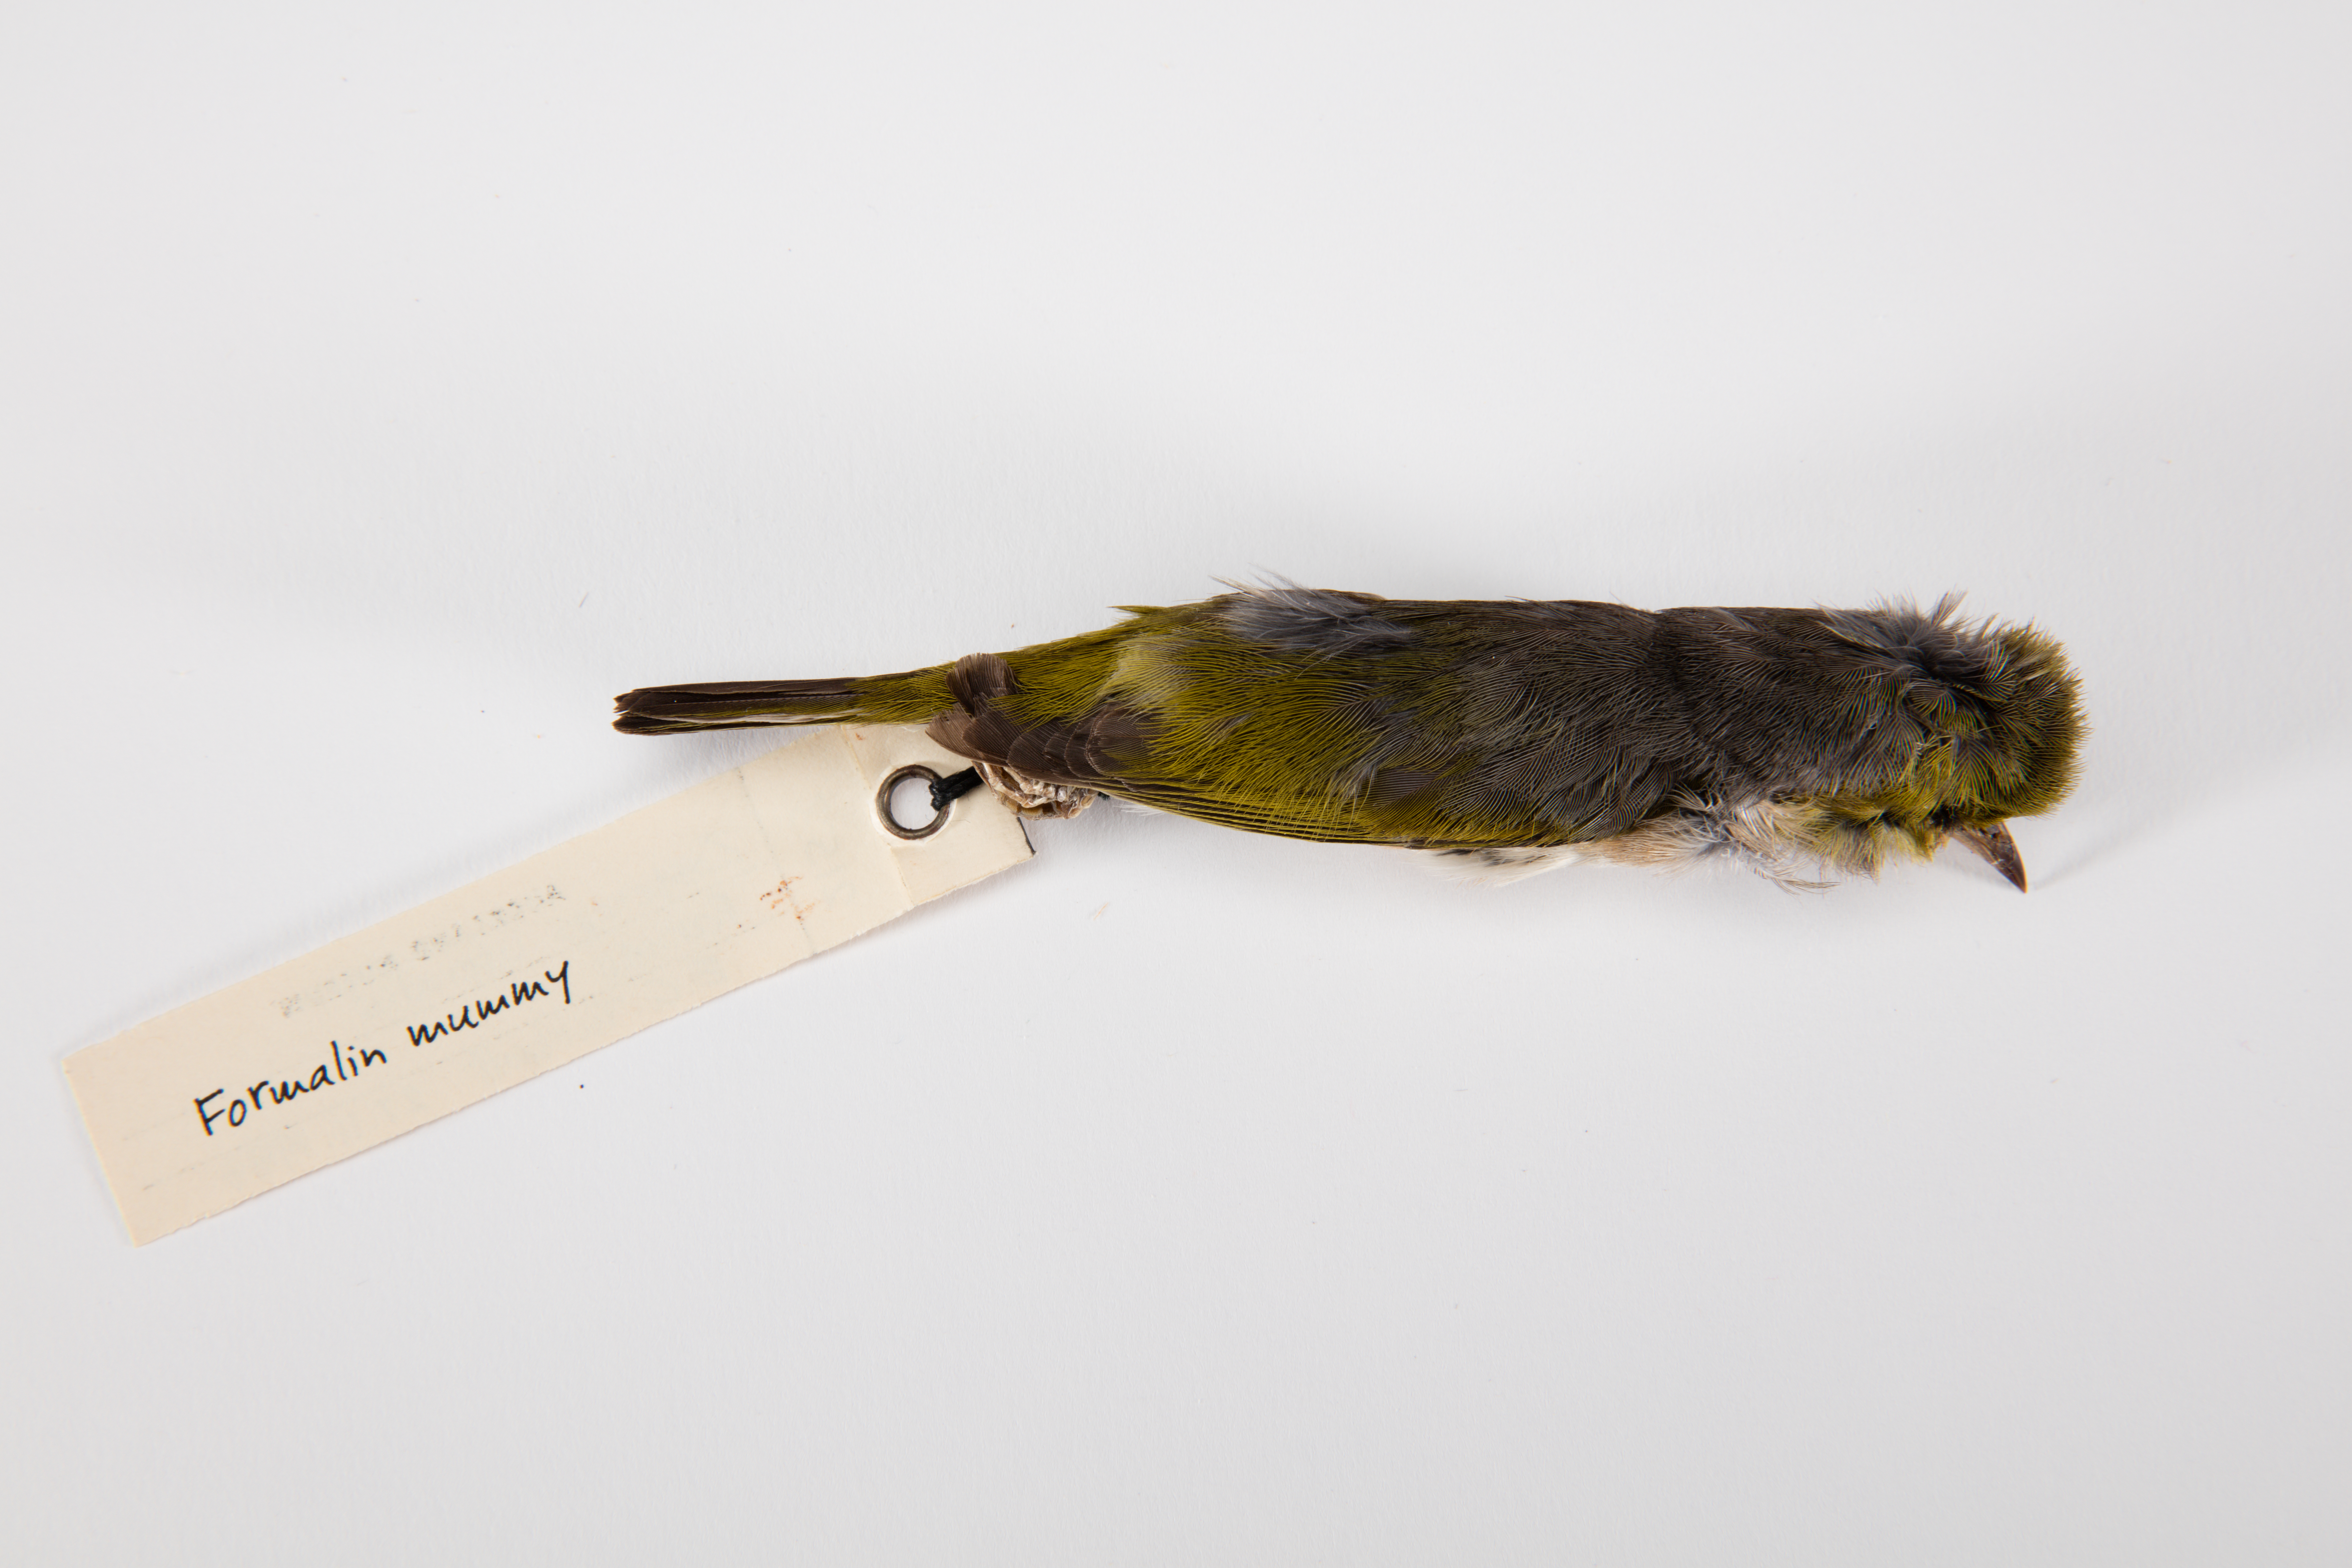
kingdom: Animalia
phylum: Chordata
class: Aves
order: Passeriformes
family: Zosteropidae
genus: Zosterops
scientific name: Zosterops lateralis
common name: Silvereye
